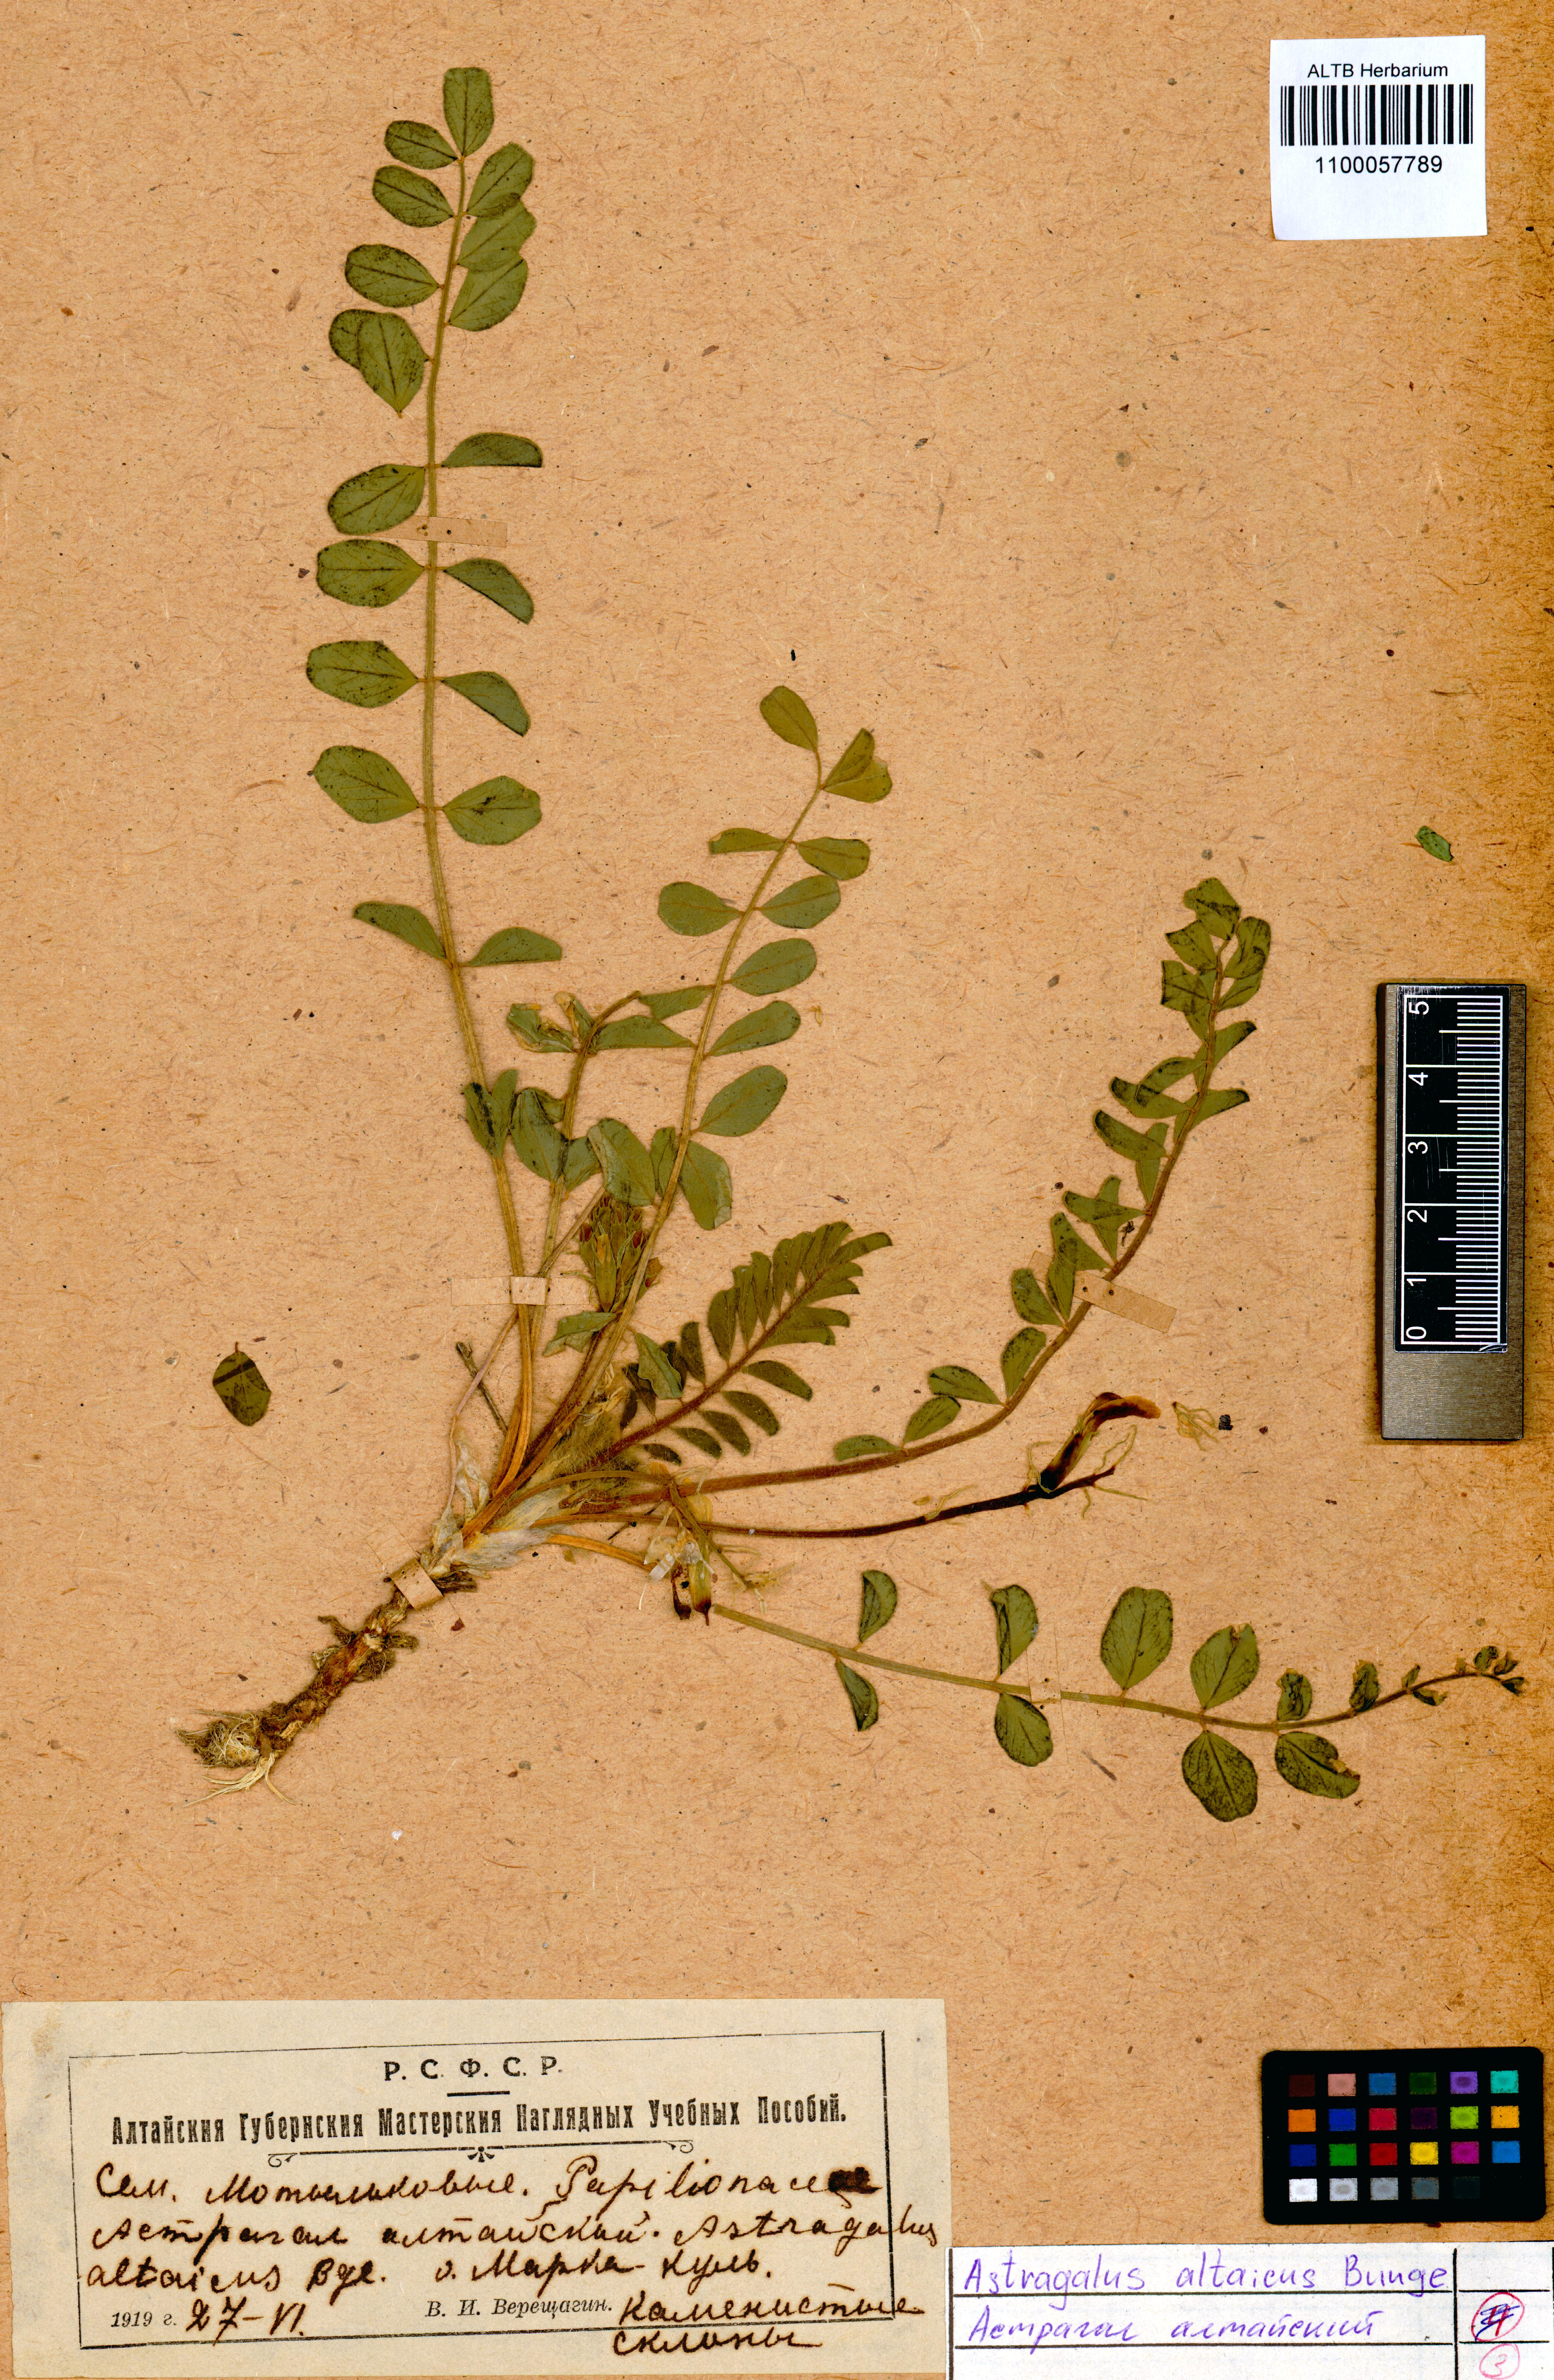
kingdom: Plantae
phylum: Tracheophyta
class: Magnoliopsida
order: Fabales
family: Fabaceae
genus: Astragalus
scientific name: Astragalus altaicola
